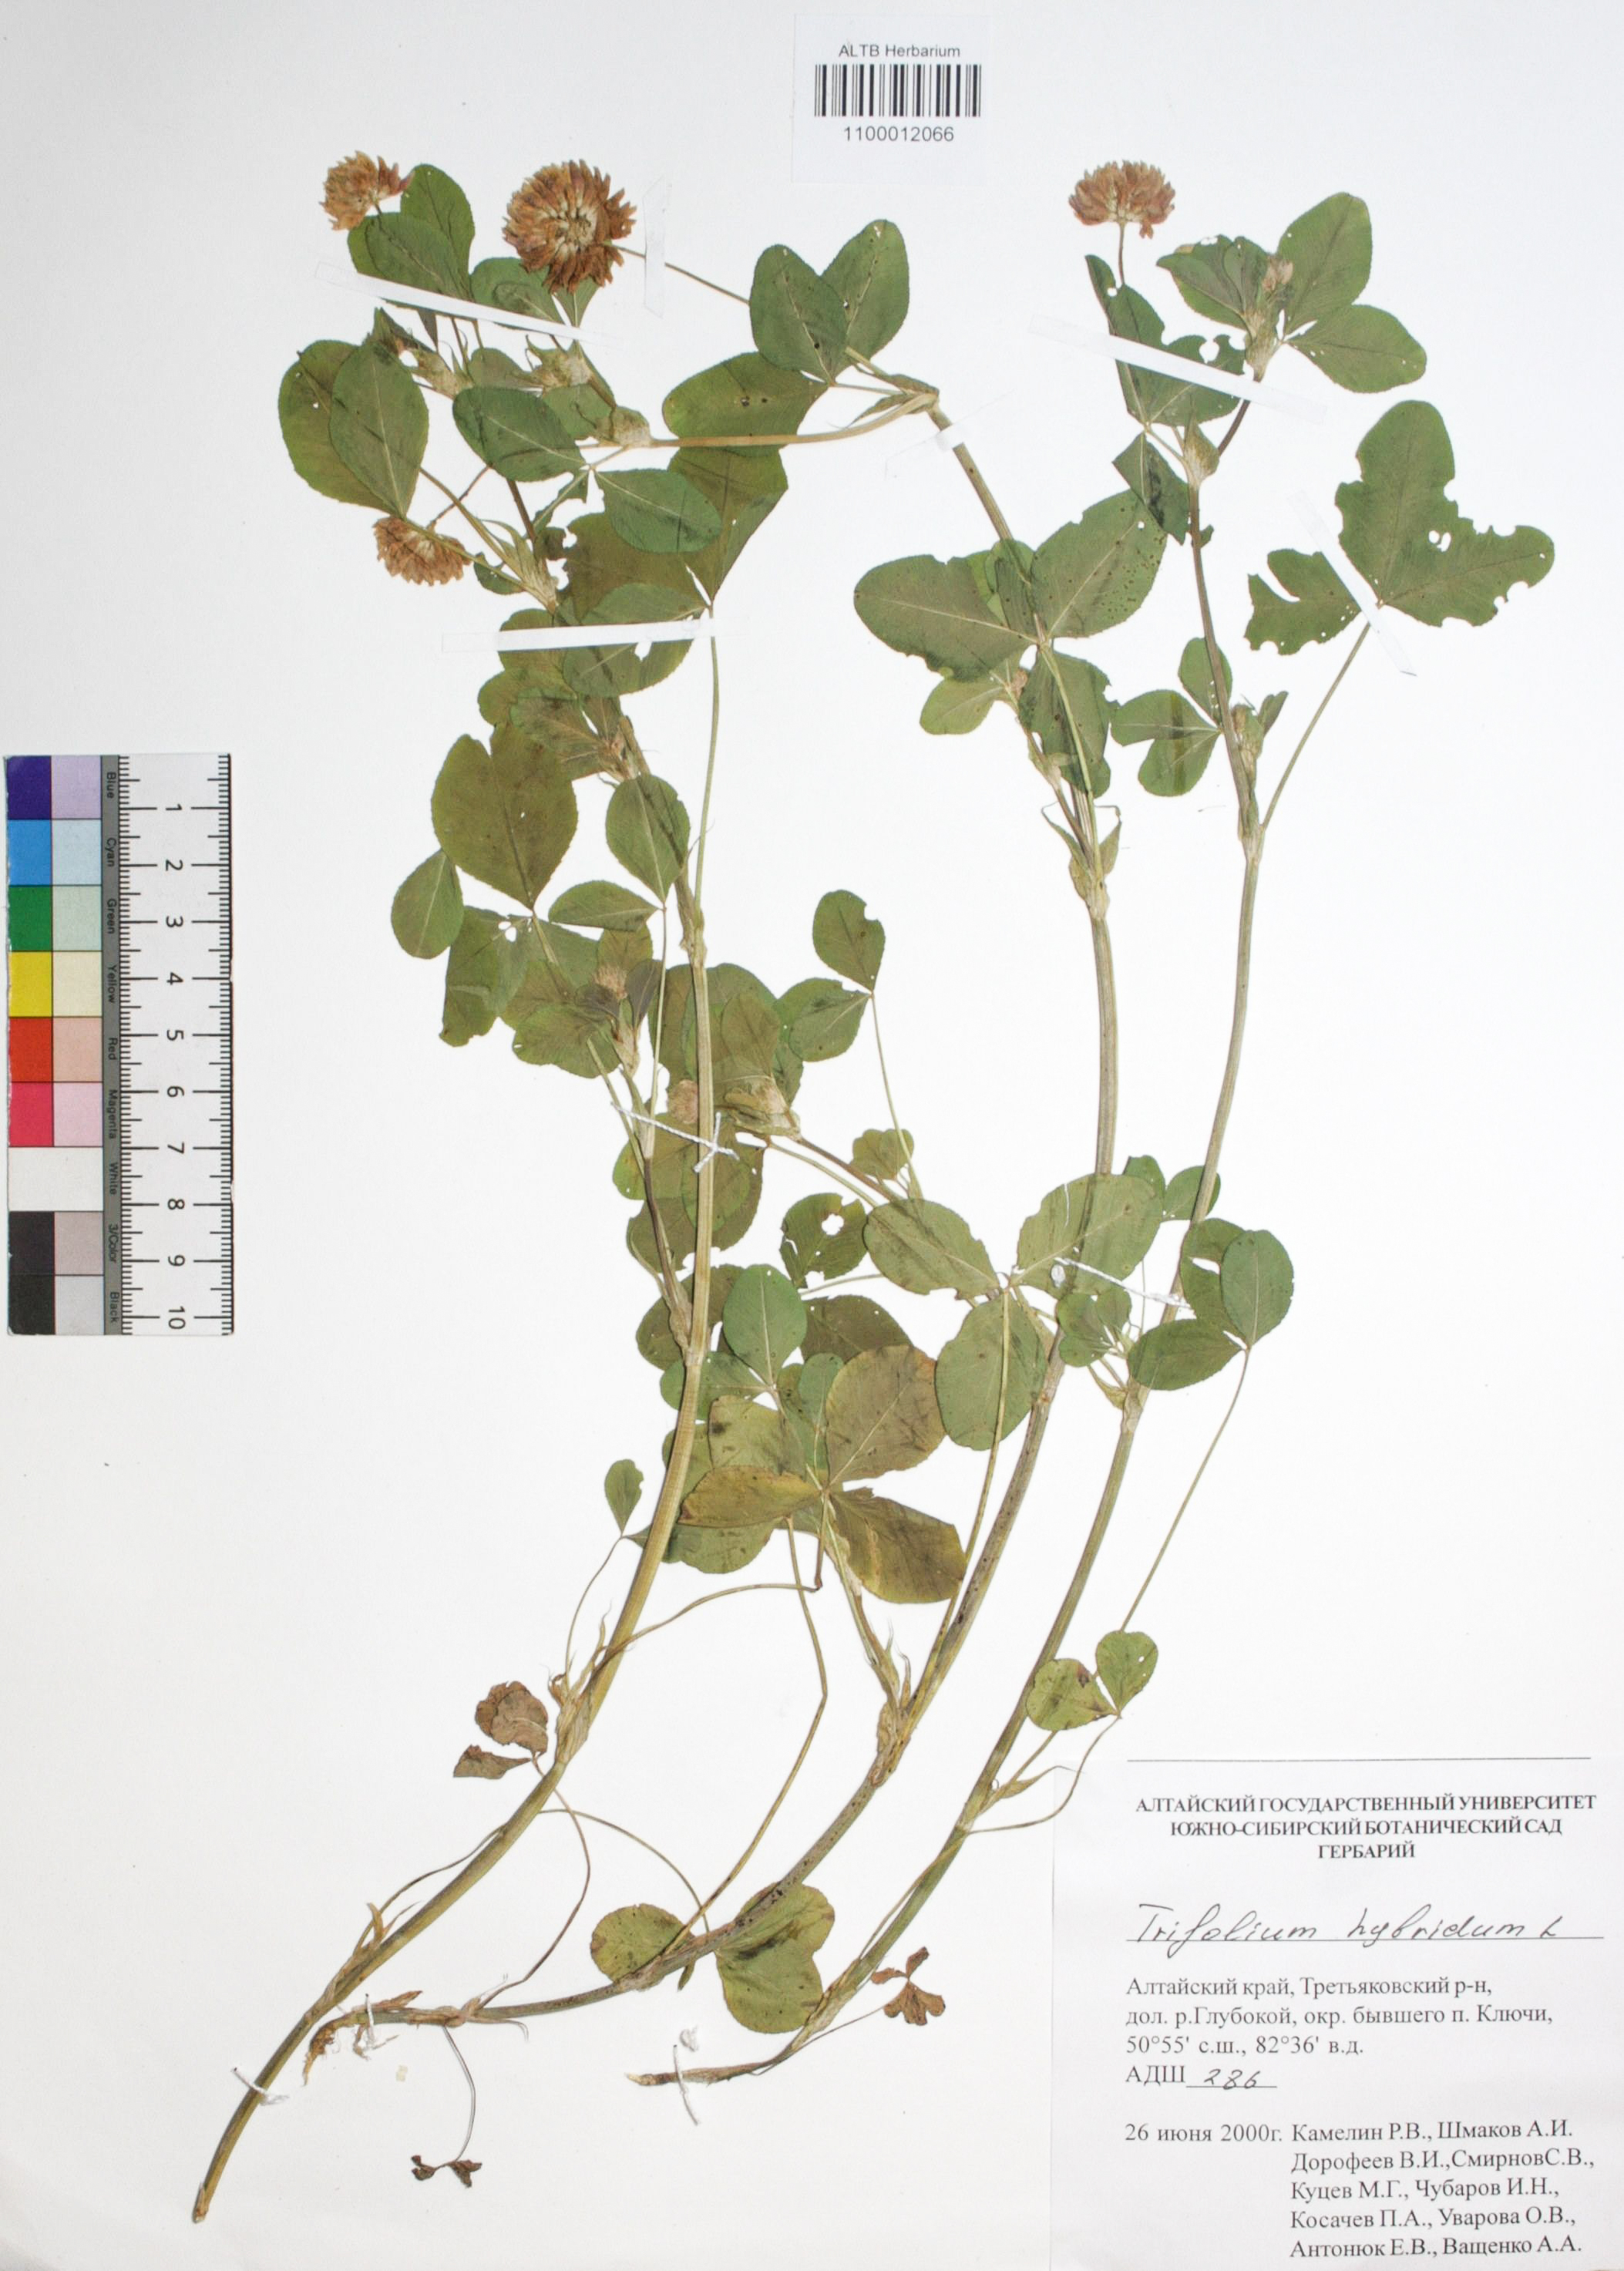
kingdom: Plantae
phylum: Tracheophyta
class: Magnoliopsida
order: Fabales
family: Fabaceae
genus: Trifolium
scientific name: Trifolium hybridum
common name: Alsike clover
